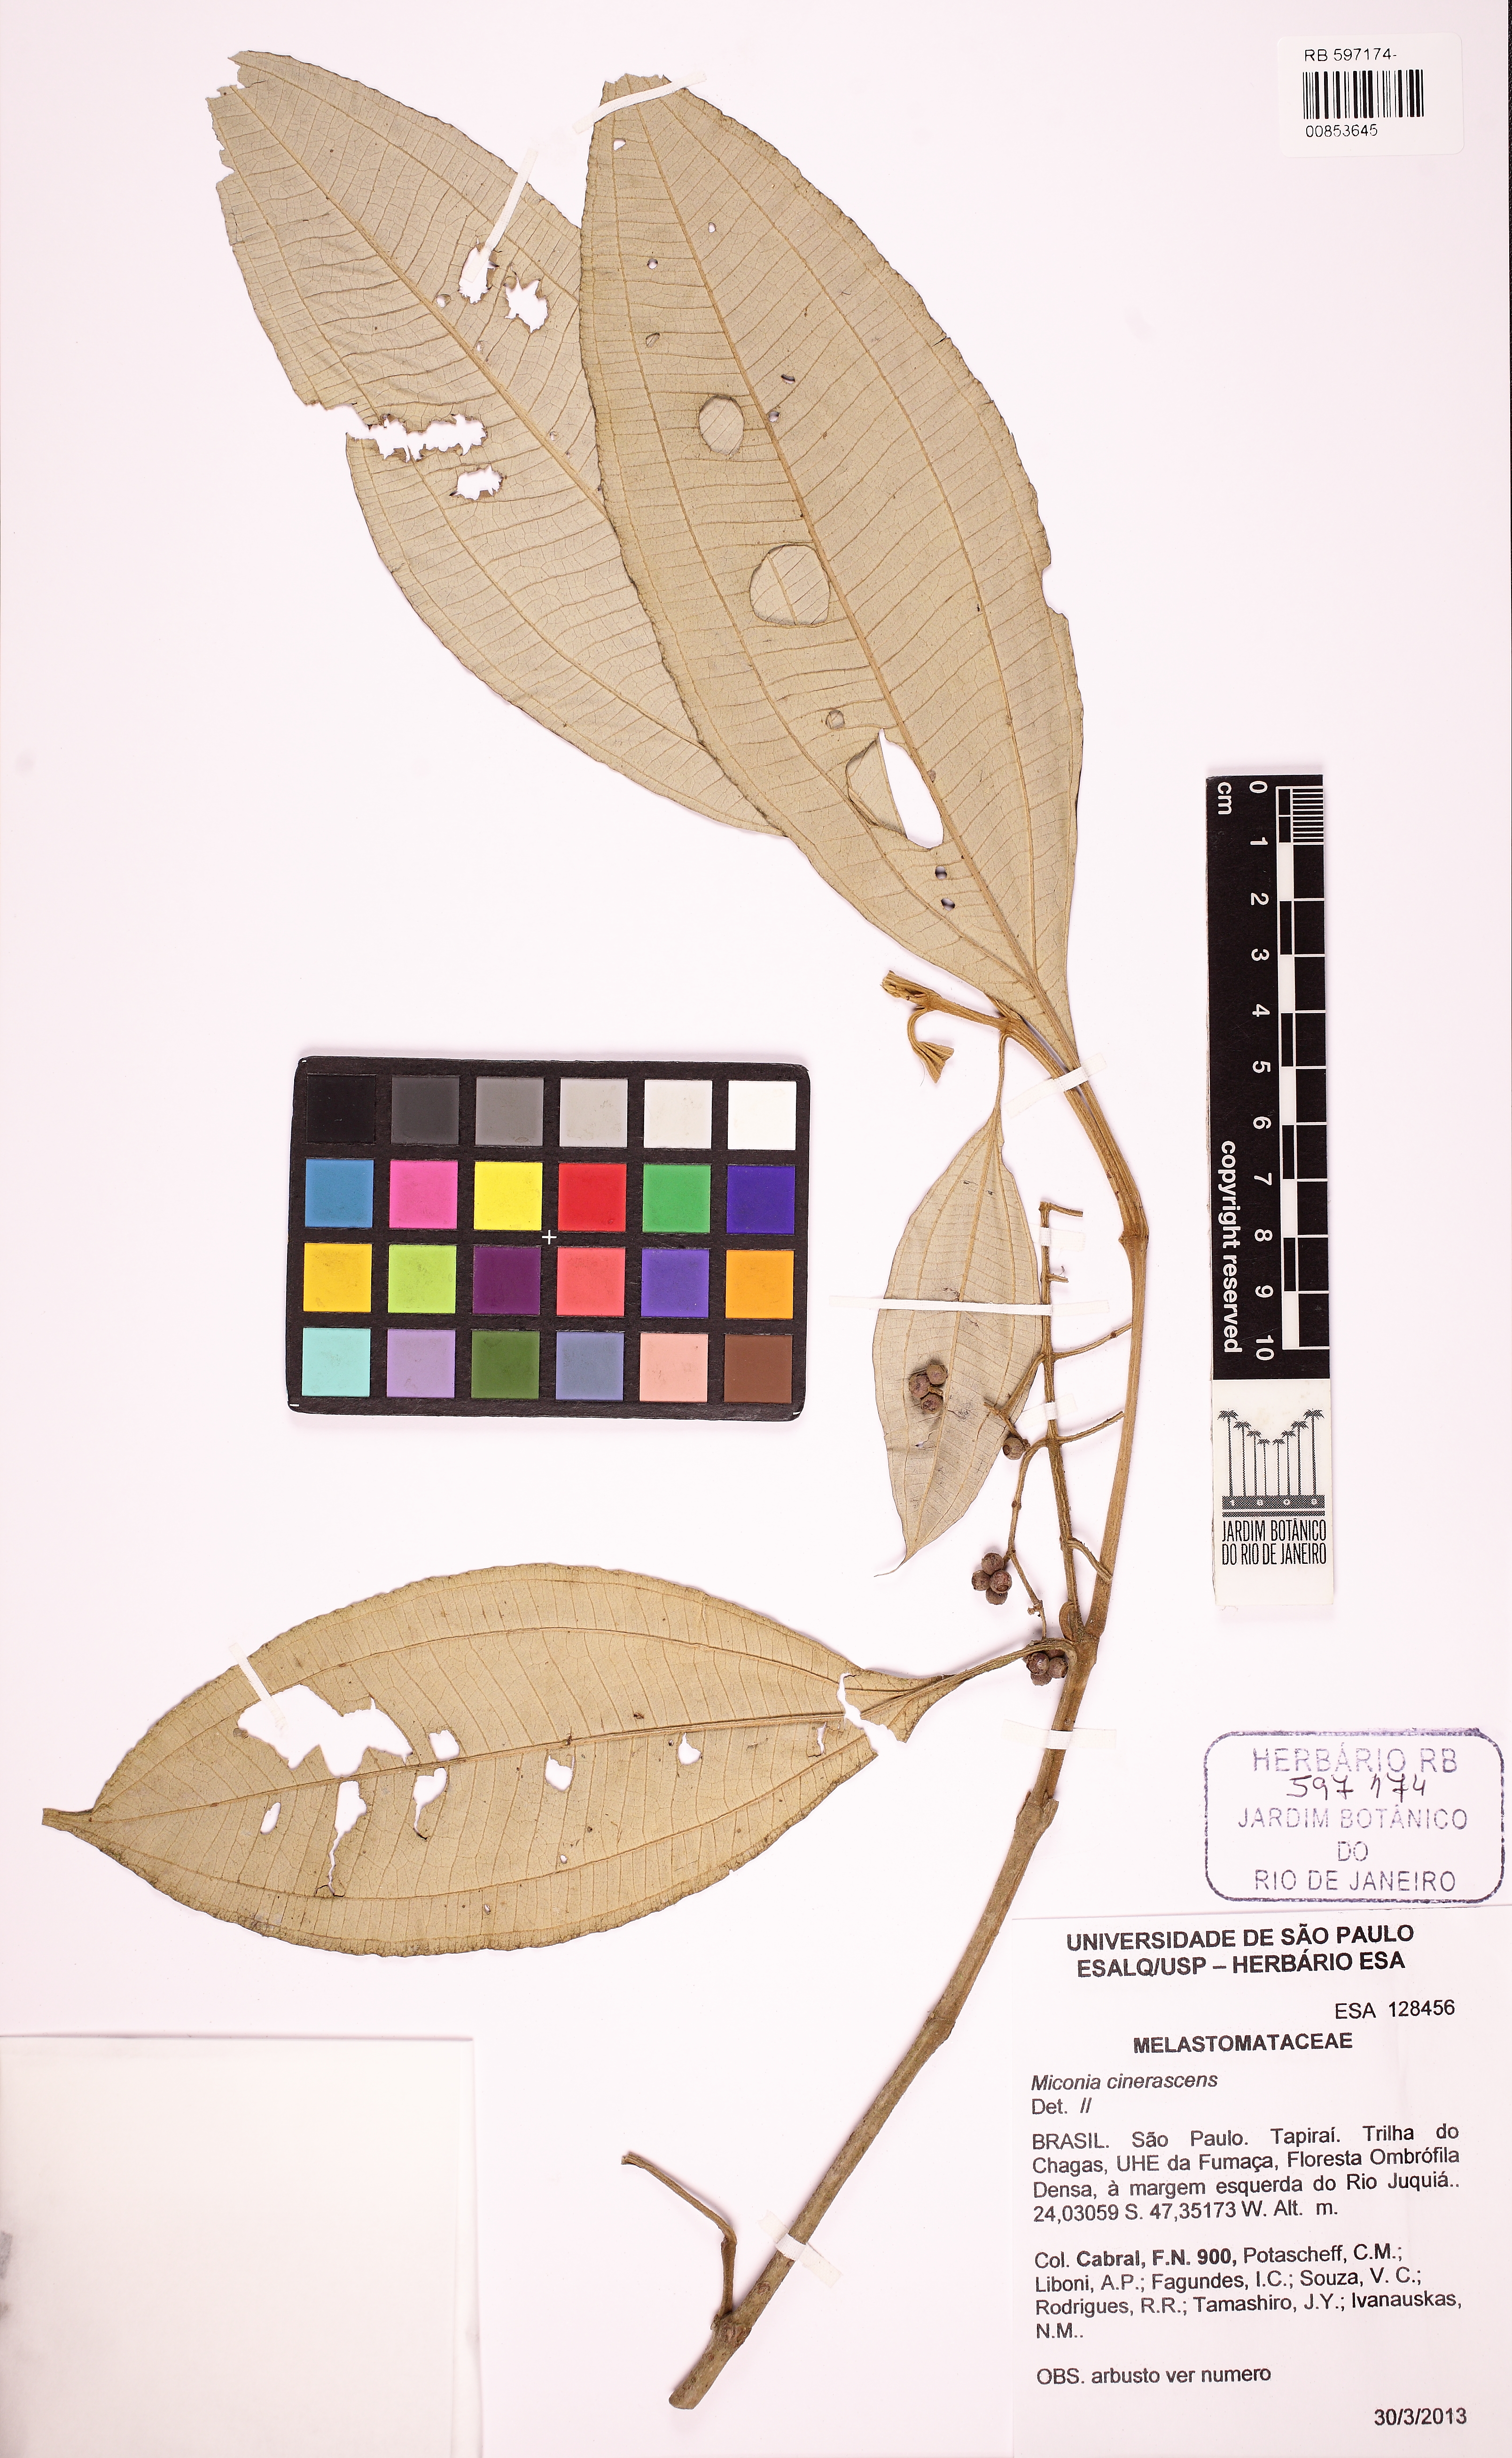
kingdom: Plantae
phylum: Tracheophyta
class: Magnoliopsida
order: Myrtales
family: Melastomataceae
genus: Miconia
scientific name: Miconia cinerascens
